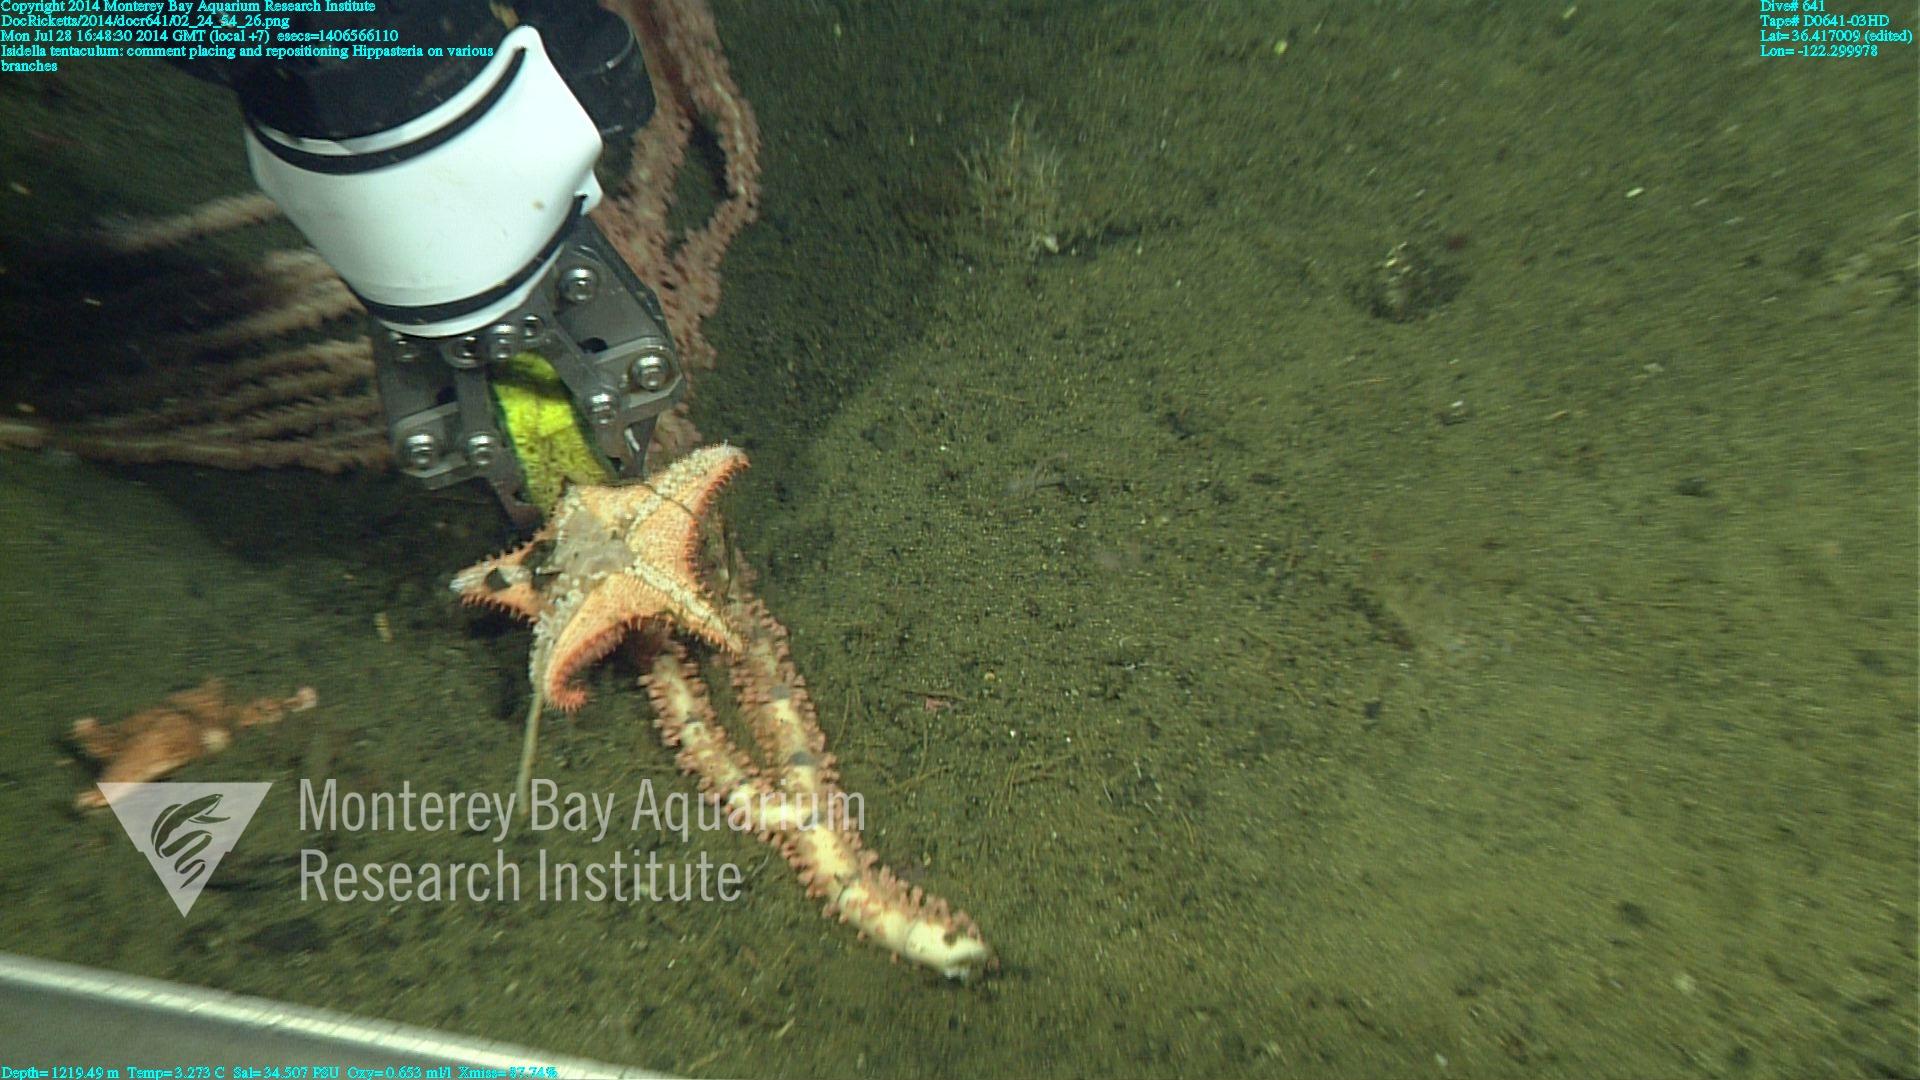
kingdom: Animalia
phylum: Cnidaria
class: Anthozoa
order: Scleralcyonacea
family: Keratoisididae
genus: Isidella
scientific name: Isidella tentaculum
